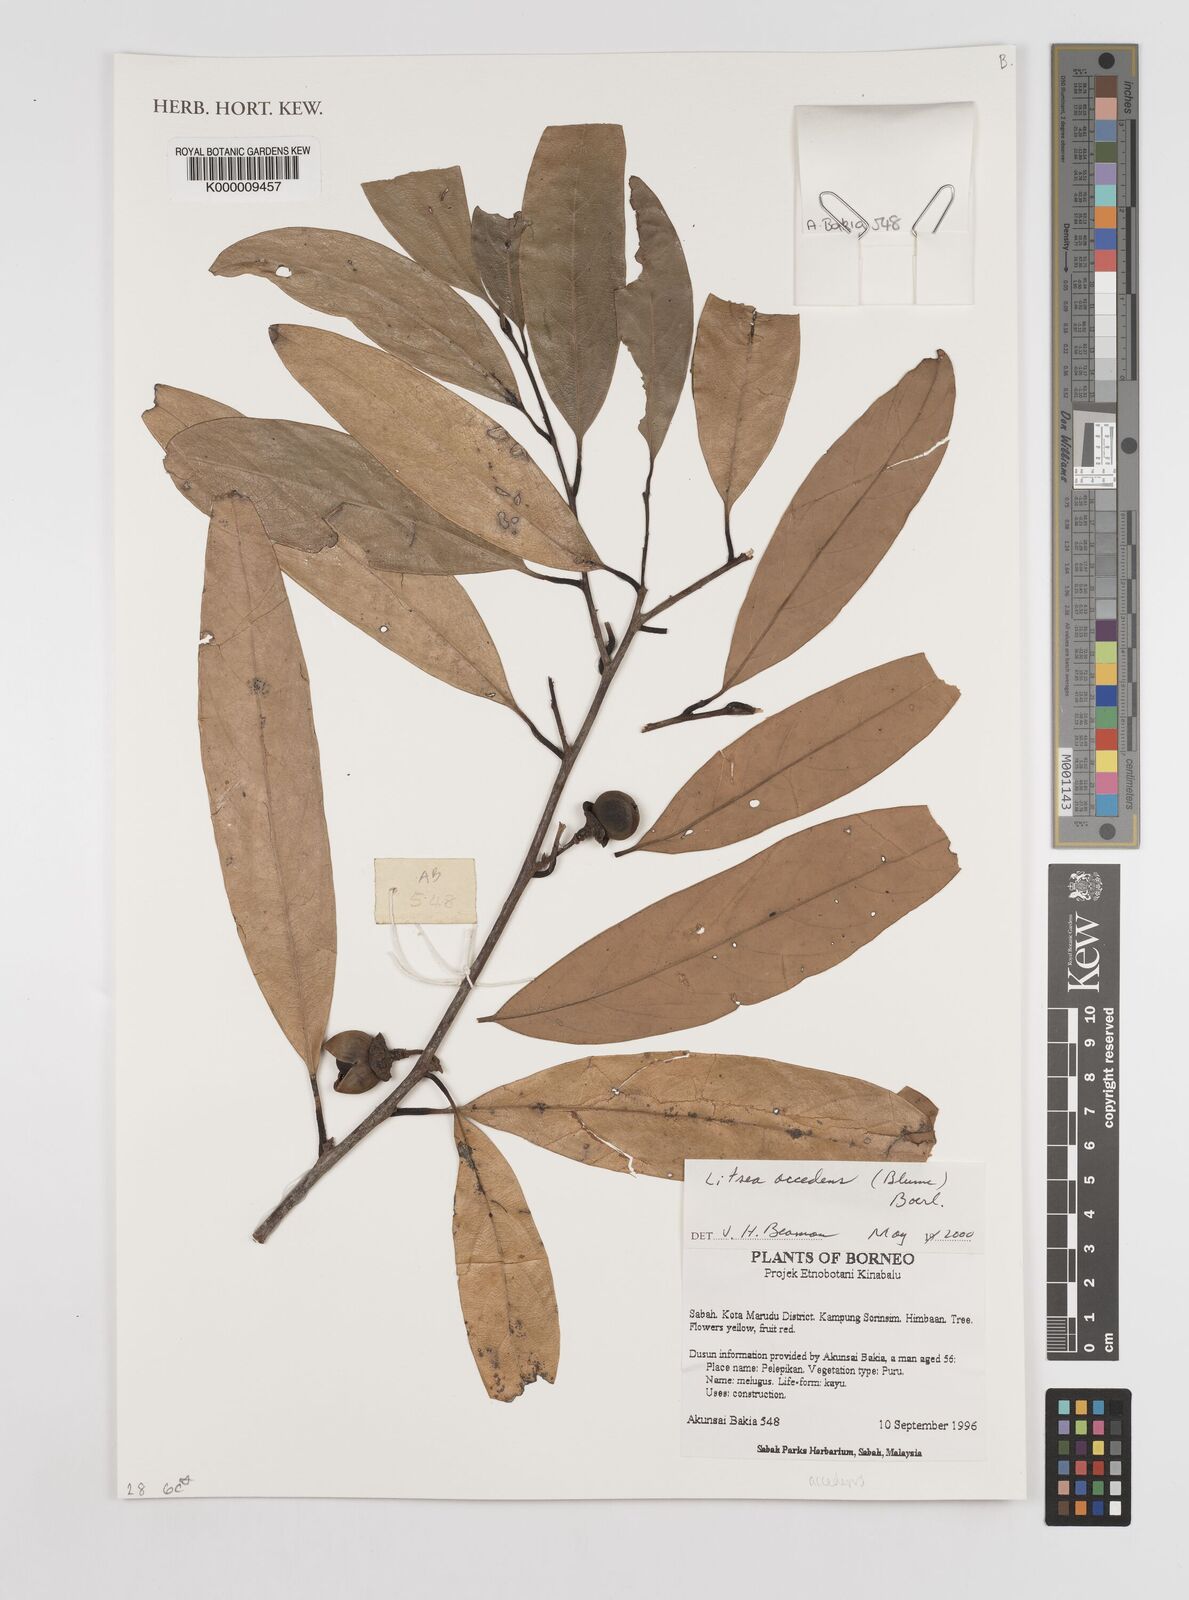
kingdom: Plantae
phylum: Tracheophyta
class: Magnoliopsida
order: Laurales
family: Lauraceae
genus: Litsea
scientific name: Litsea
